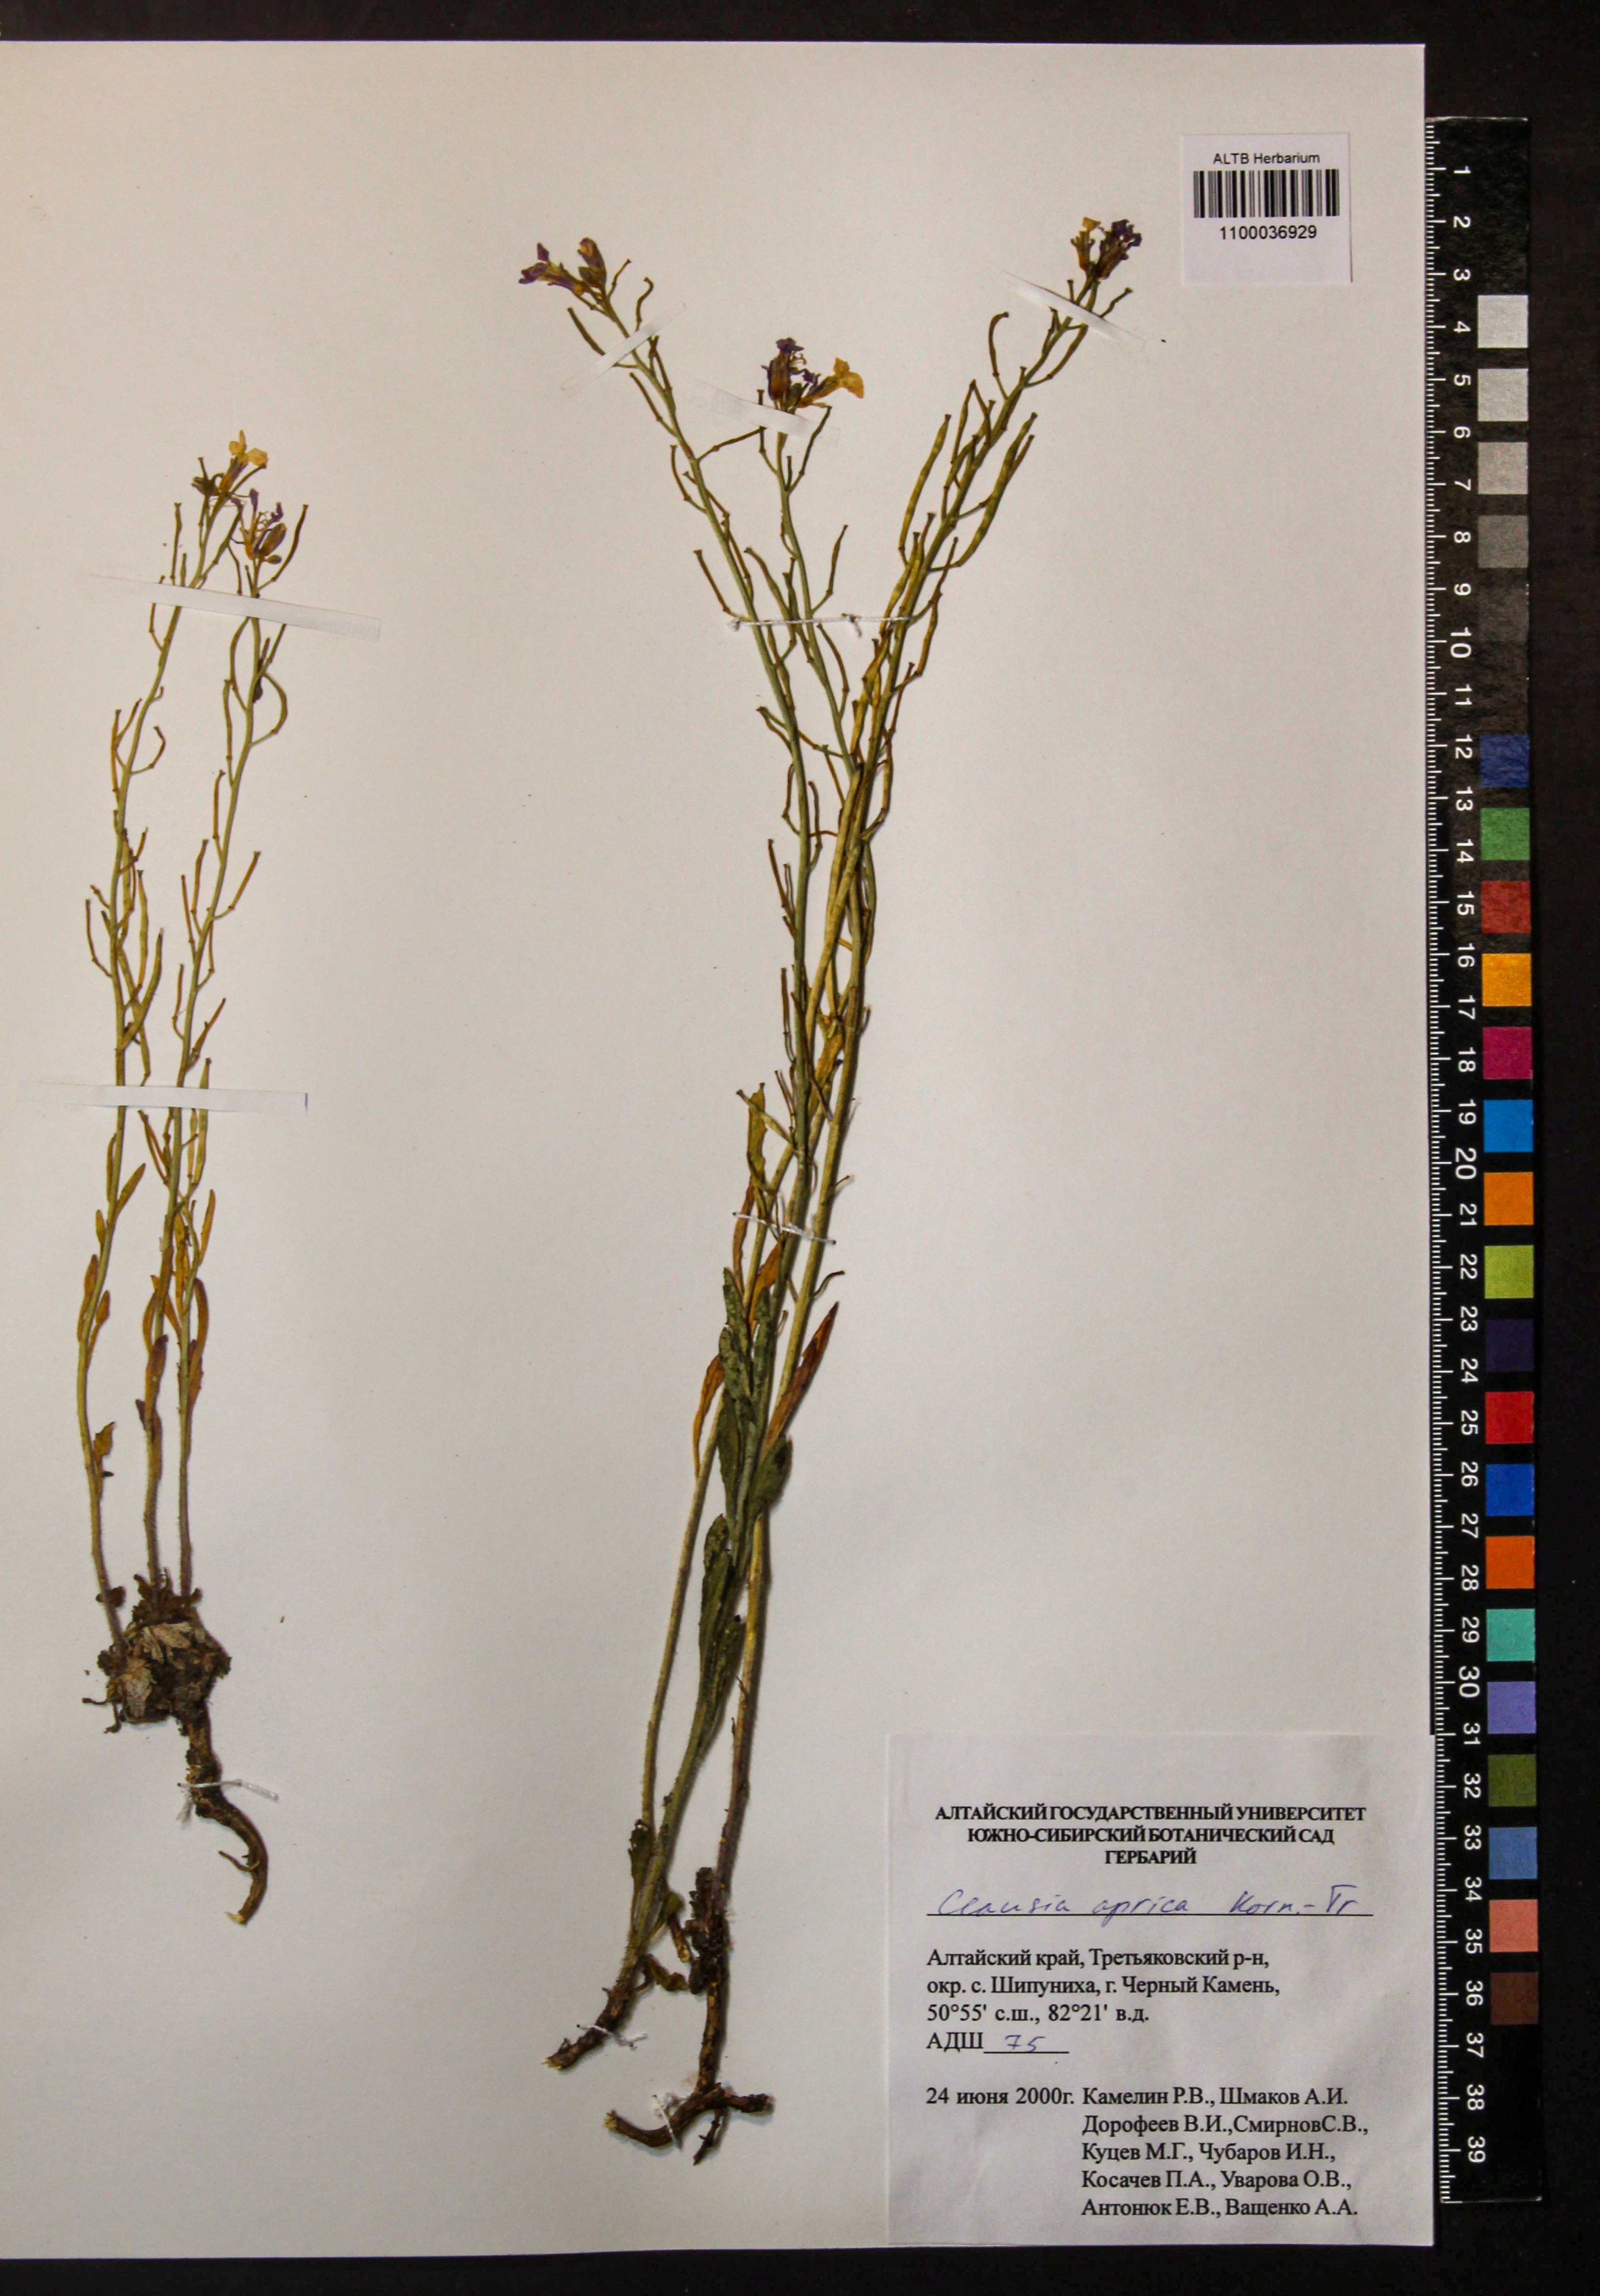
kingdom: Plantae
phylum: Tracheophyta
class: Magnoliopsida
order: Brassicales
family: Brassicaceae
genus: Clausia
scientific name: Clausia aprica
